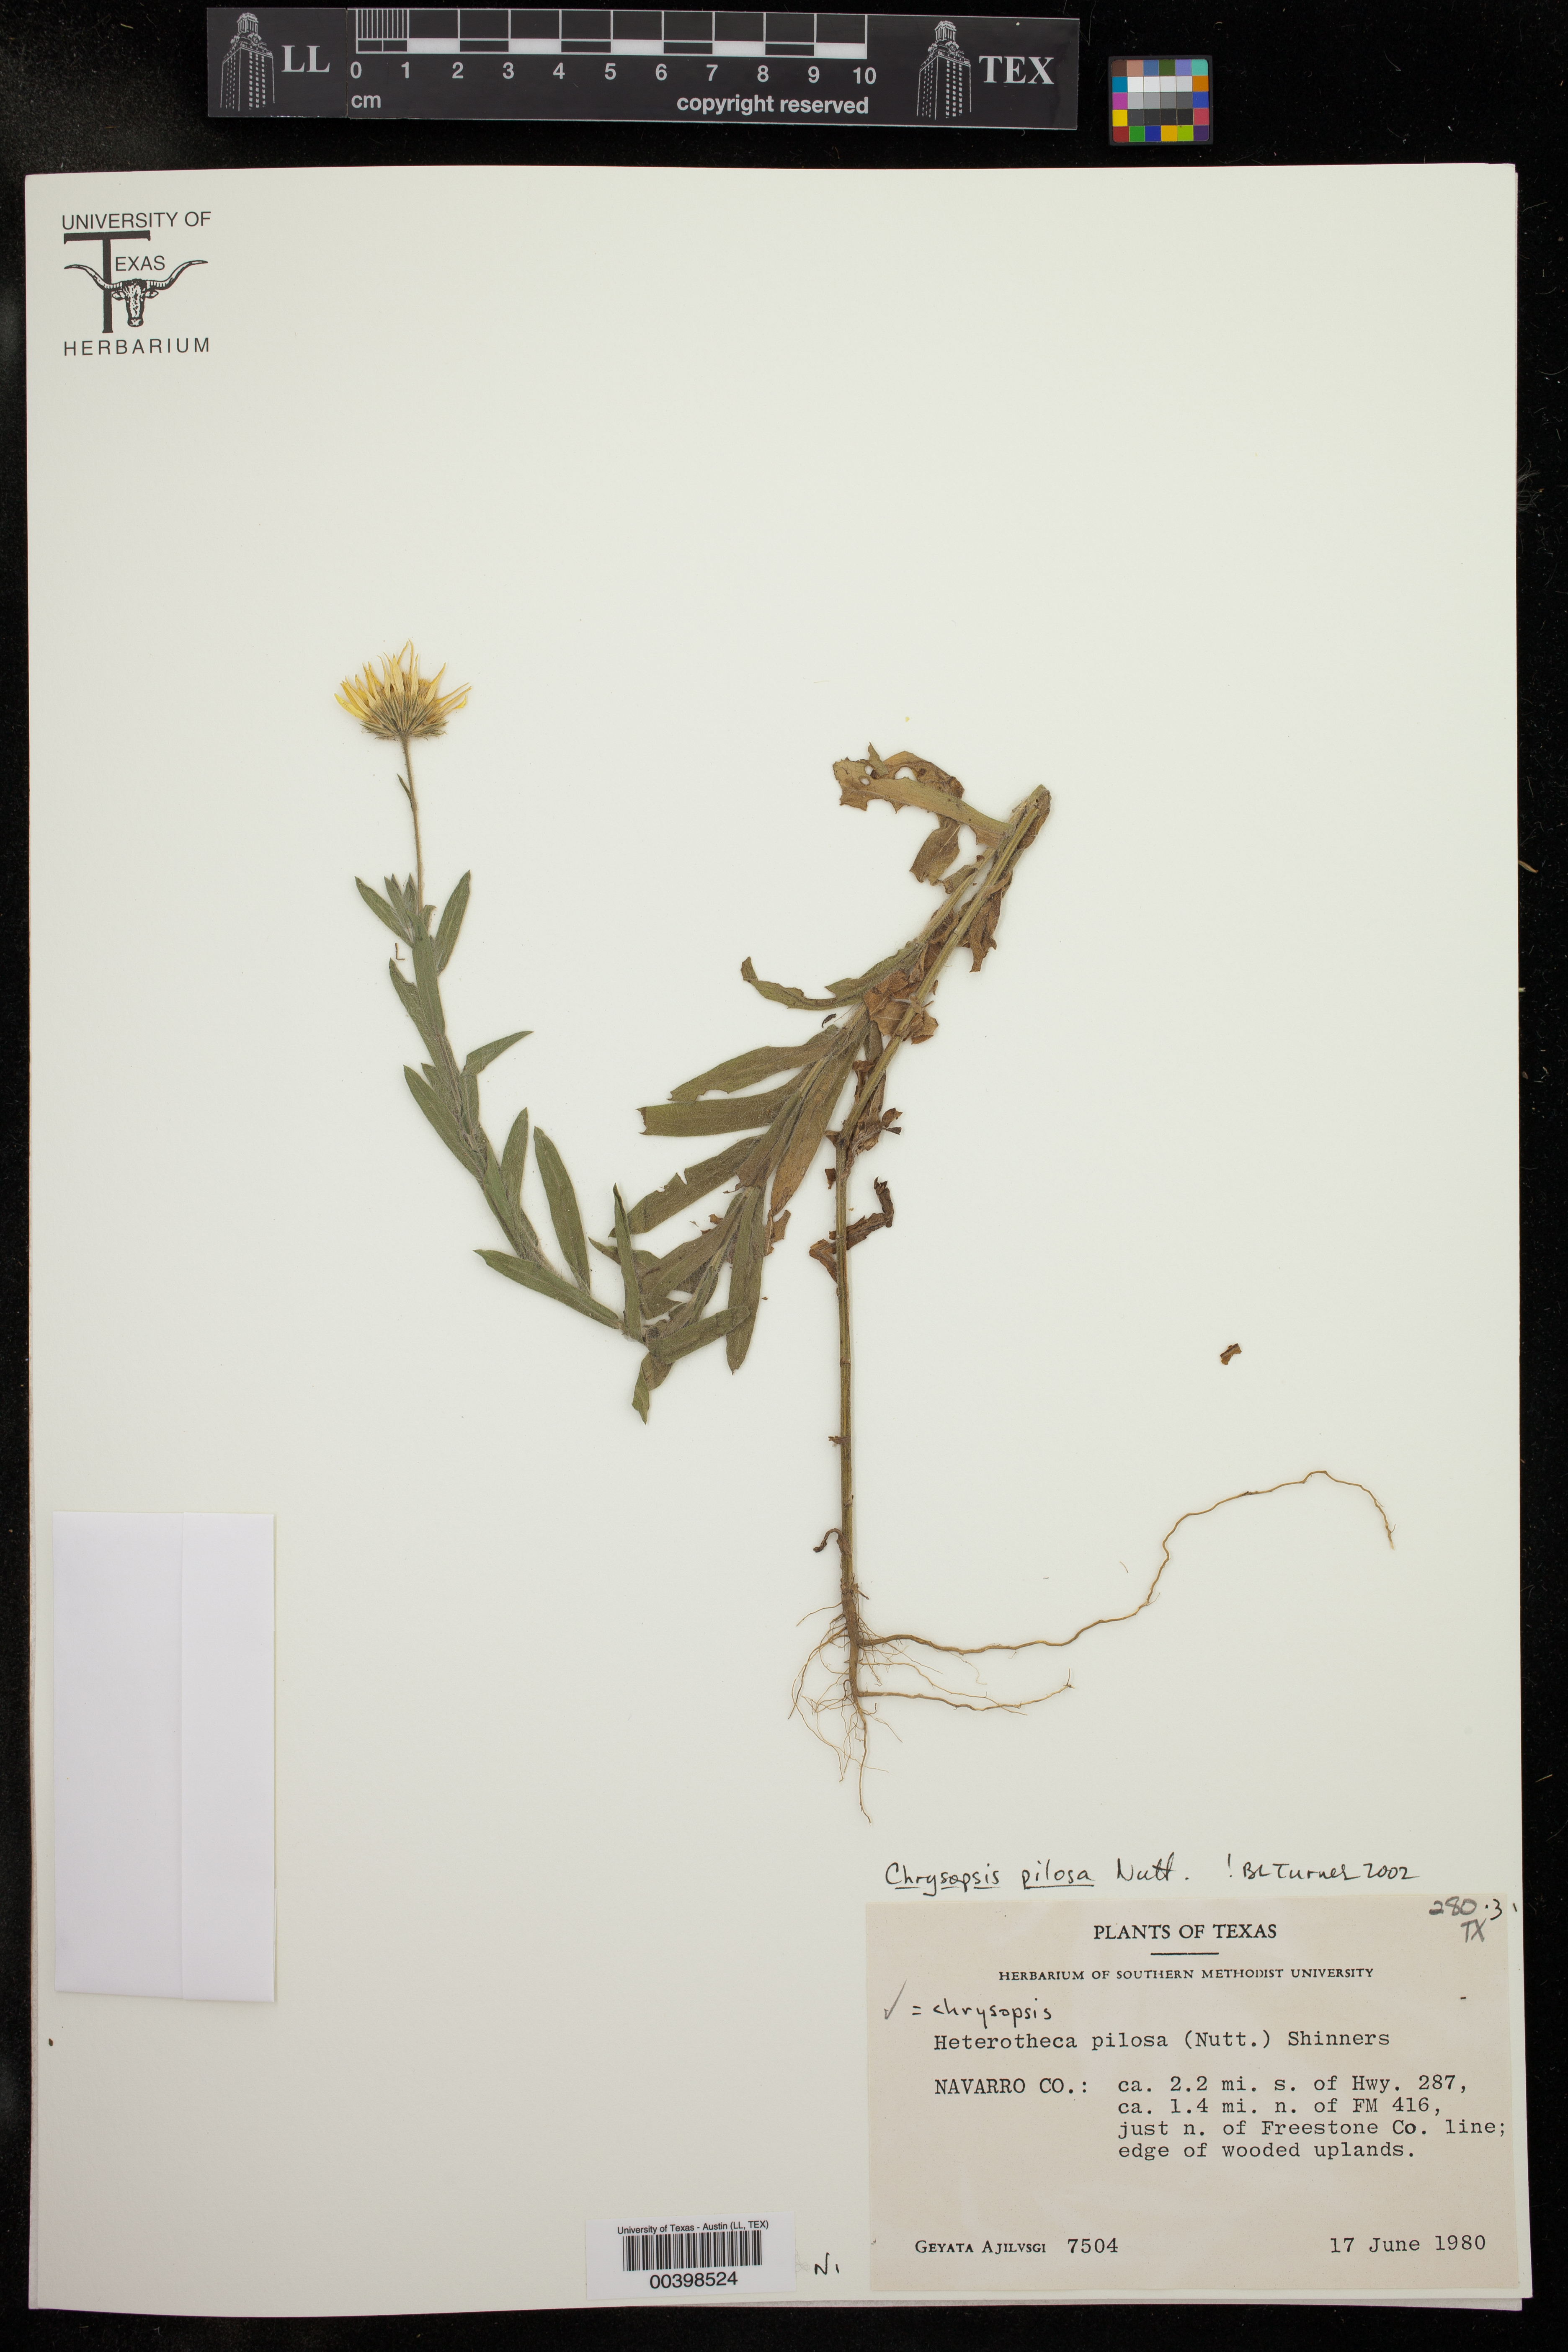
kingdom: Plantae
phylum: Tracheophyta
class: Magnoliopsida
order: Asterales
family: Asteraceae
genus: Chrysopsis
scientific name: Chrysopsis gossypina
